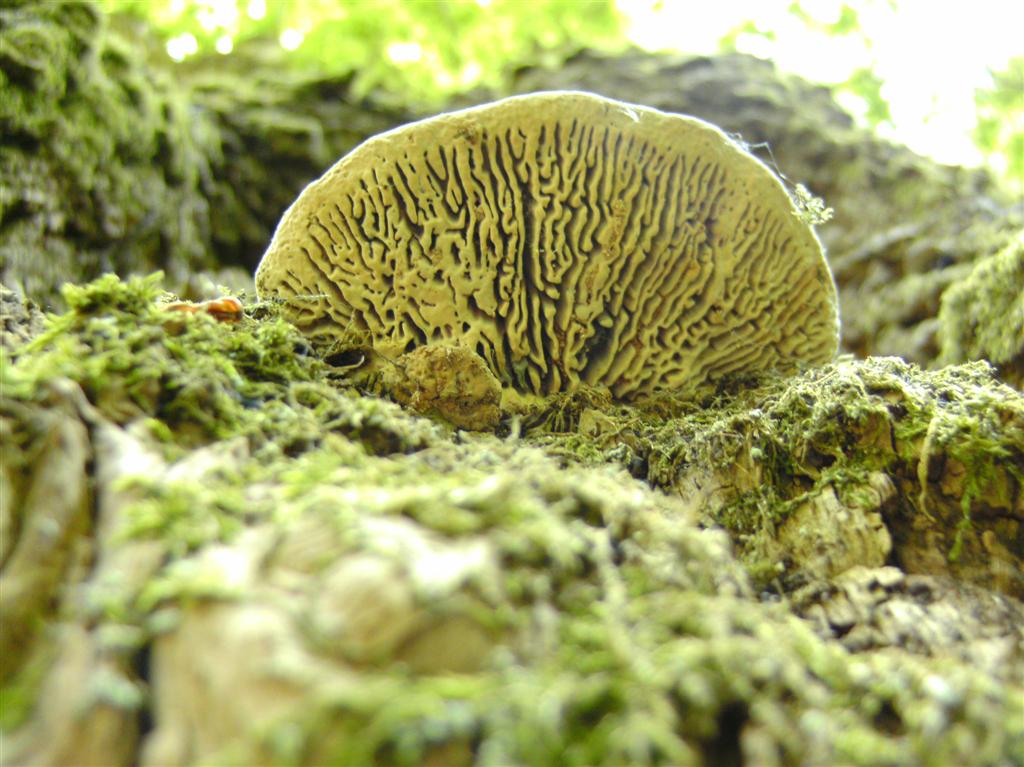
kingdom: Fungi
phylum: Basidiomycota
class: Agaricomycetes
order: Polyporales
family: Fomitopsidaceae
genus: Daedalea
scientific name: Daedalea quercina
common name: ege-labyrintsvamp
